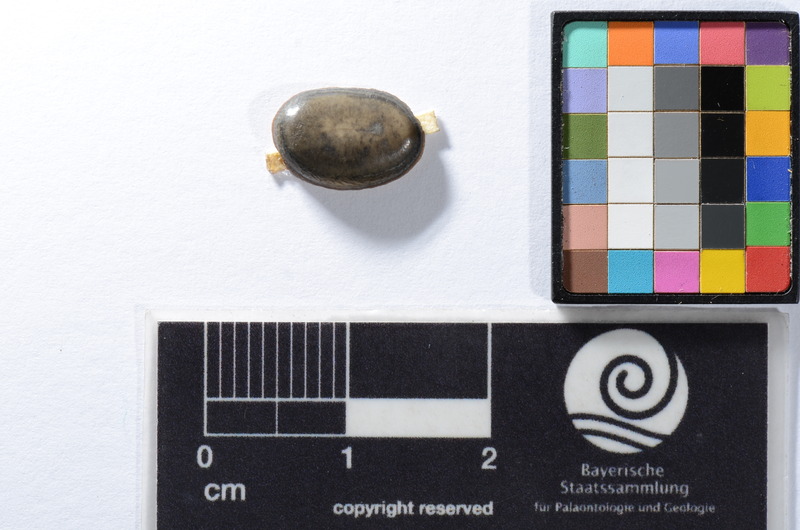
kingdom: Animalia
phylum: Chordata
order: Anguilliformes
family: Phyllodontidae
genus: Phyllodus
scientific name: Phyllodus
